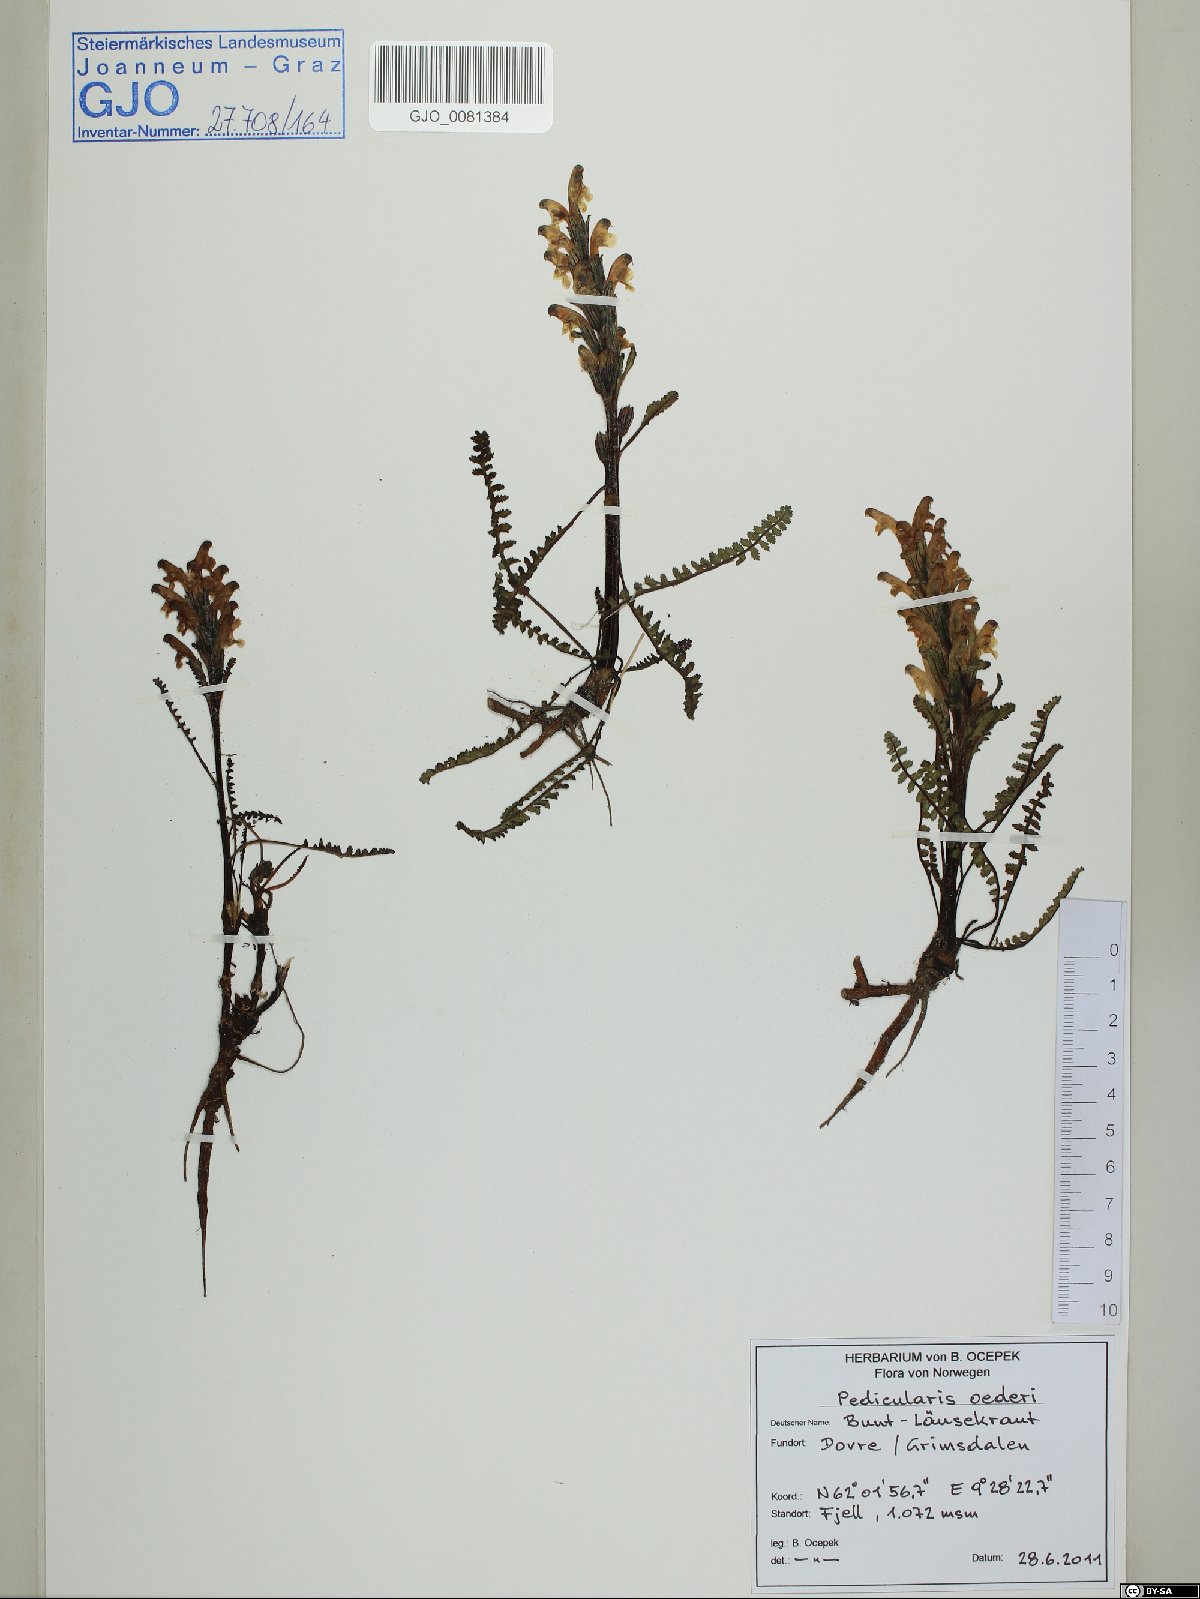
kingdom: Plantae
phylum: Tracheophyta
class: Magnoliopsida
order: Lamiales
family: Orobanchaceae
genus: Pedicularis
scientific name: Pedicularis oederi
